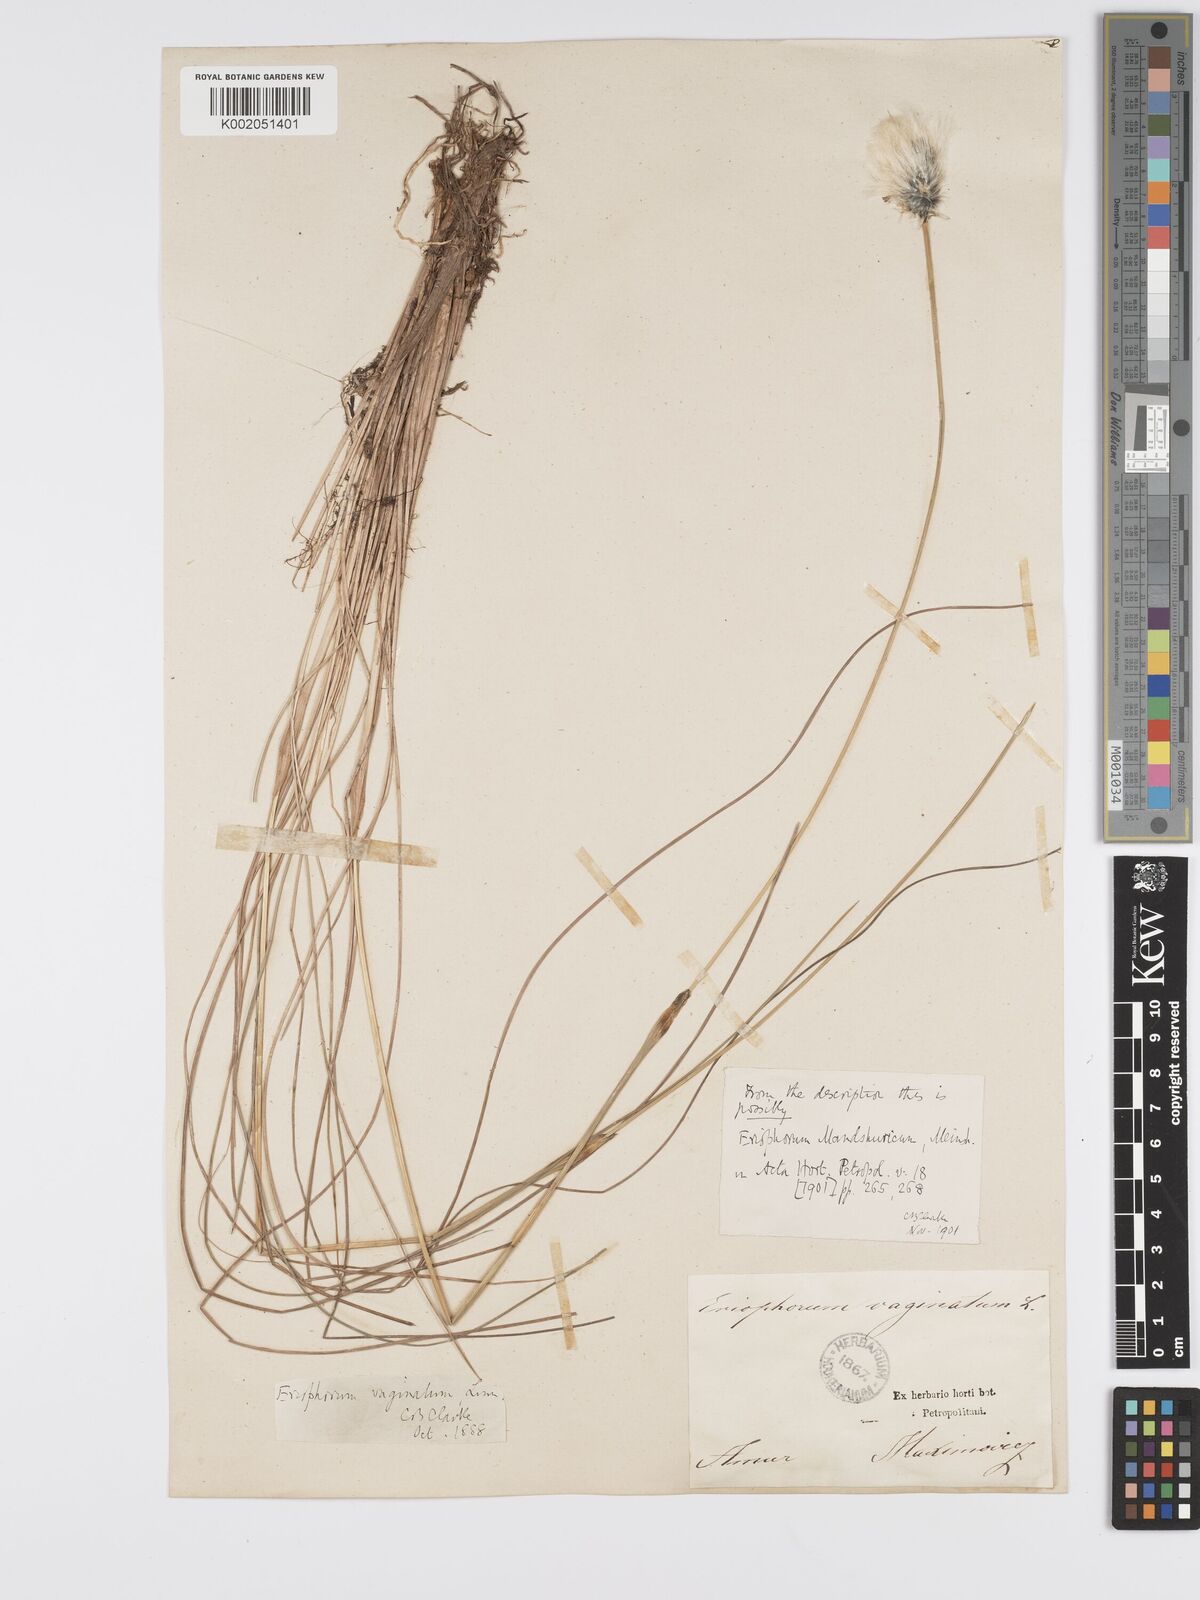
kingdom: Plantae
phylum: Tracheophyta
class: Liliopsida
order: Poales
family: Cyperaceae
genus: Eriophorum
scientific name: Eriophorum vaginatum
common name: Hare's-tail cottongrass
